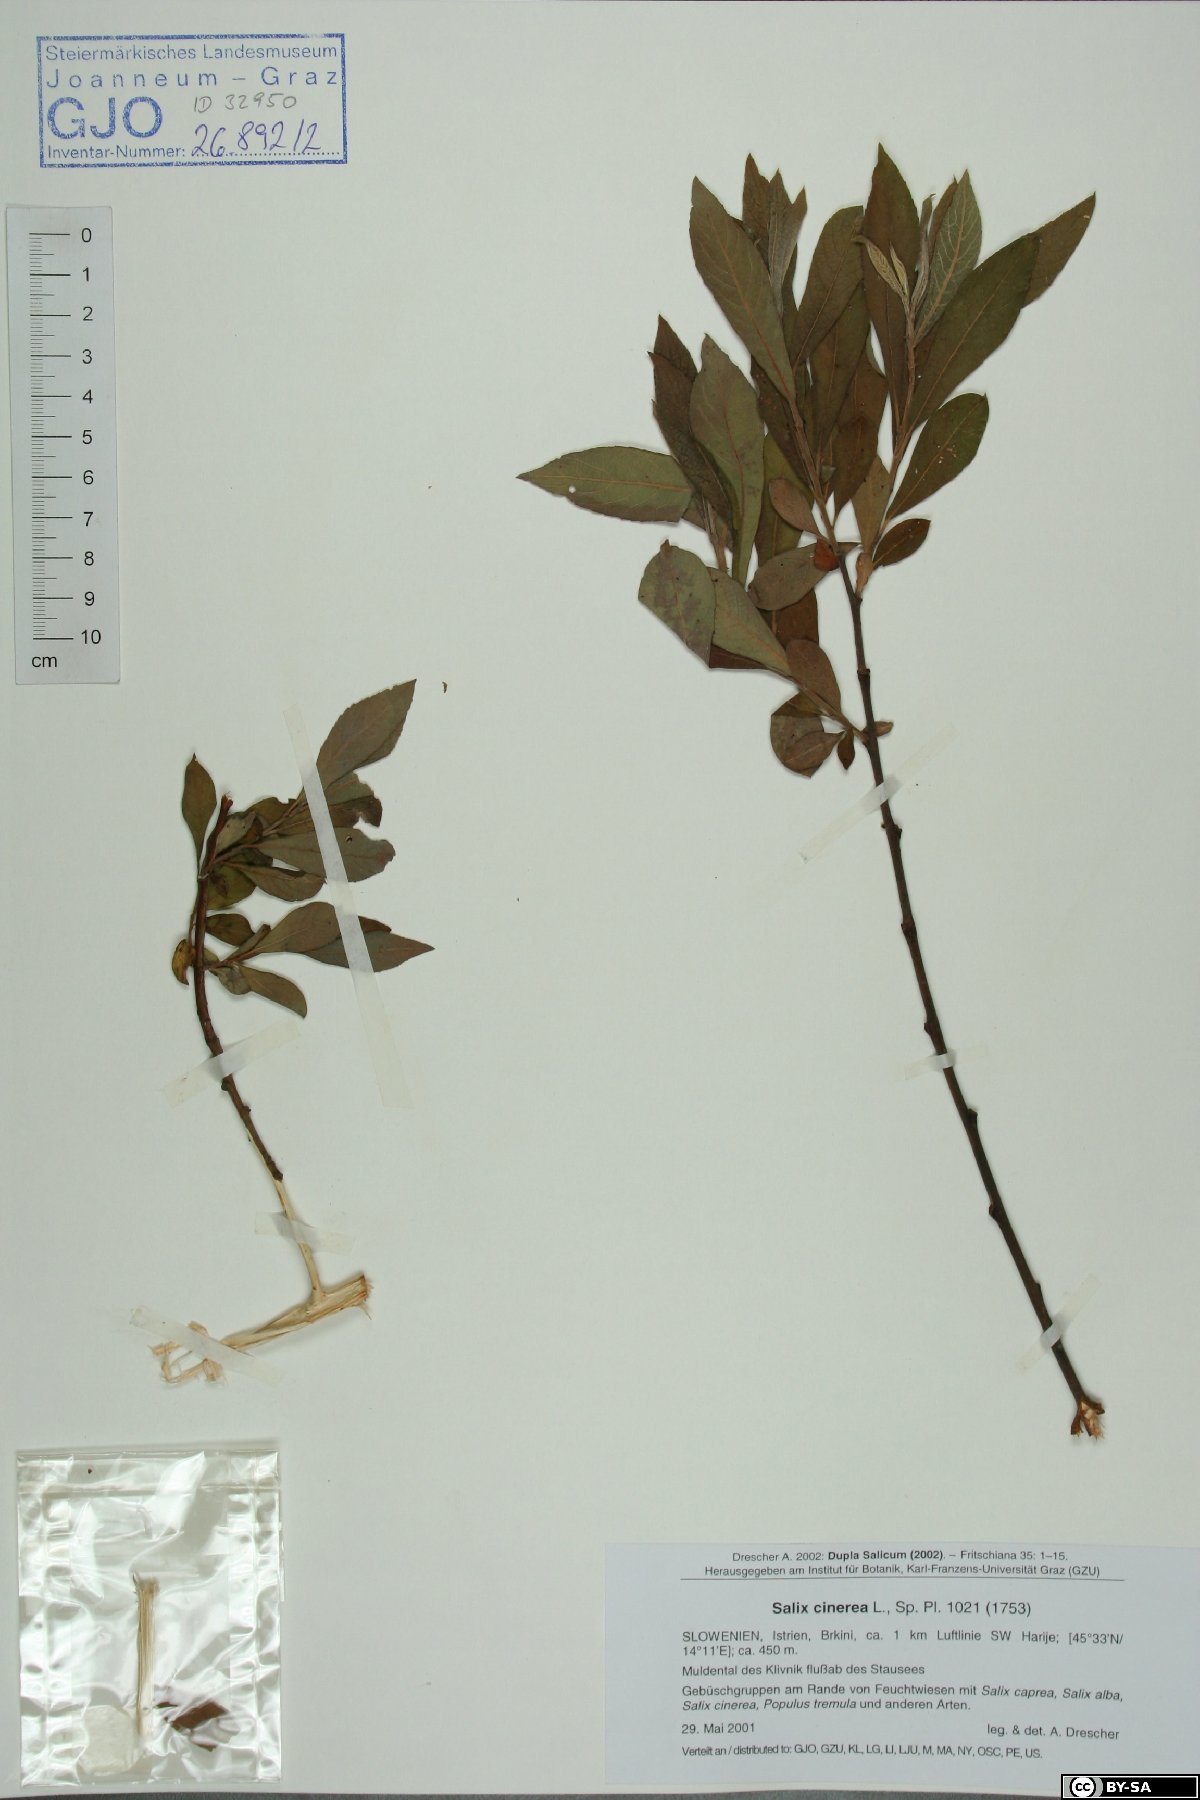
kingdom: Plantae
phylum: Tracheophyta
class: Magnoliopsida
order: Malpighiales
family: Salicaceae
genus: Salix
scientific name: Salix cinerea
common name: Common sallow
